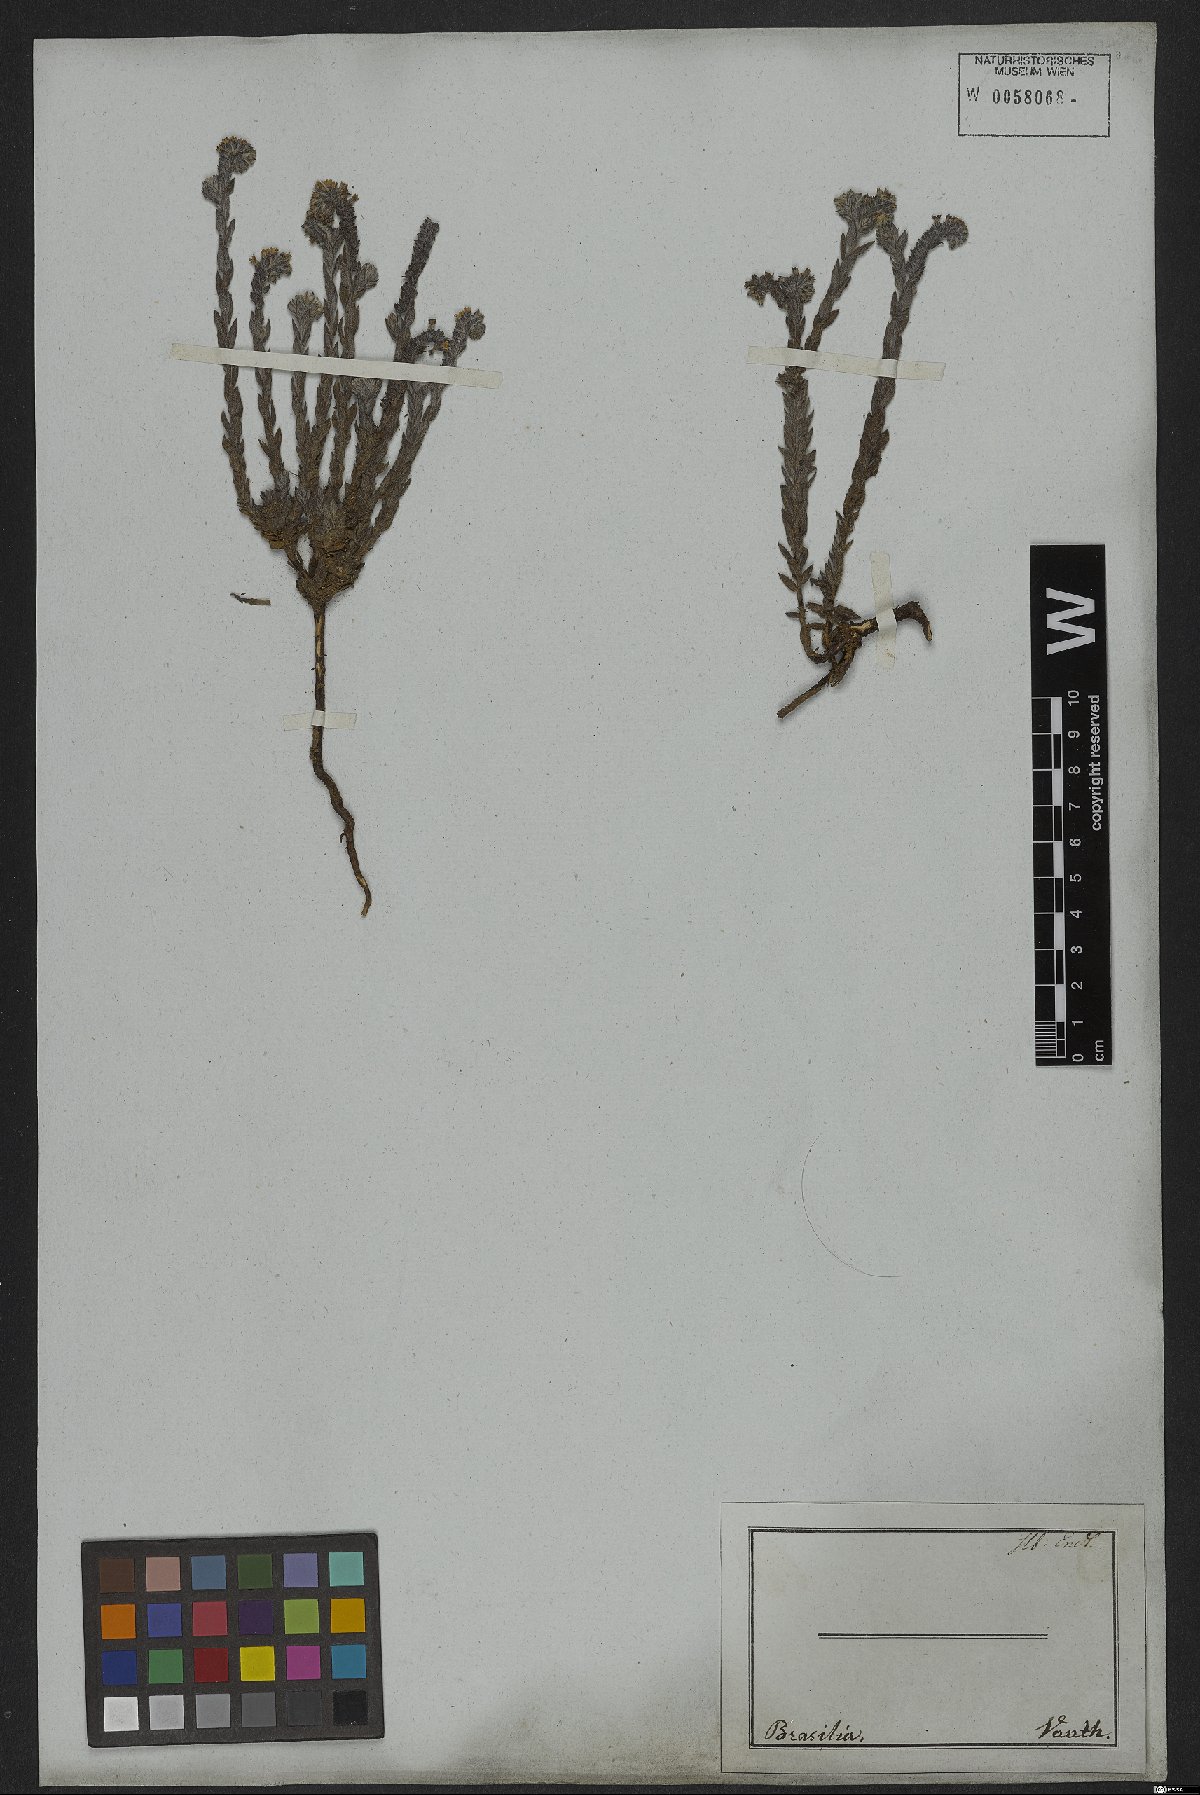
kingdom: Plantae
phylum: Tracheophyta
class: Magnoliopsida
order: Boraginales
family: Heliotropiaceae
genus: Euploca
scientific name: Euploca salicoides
